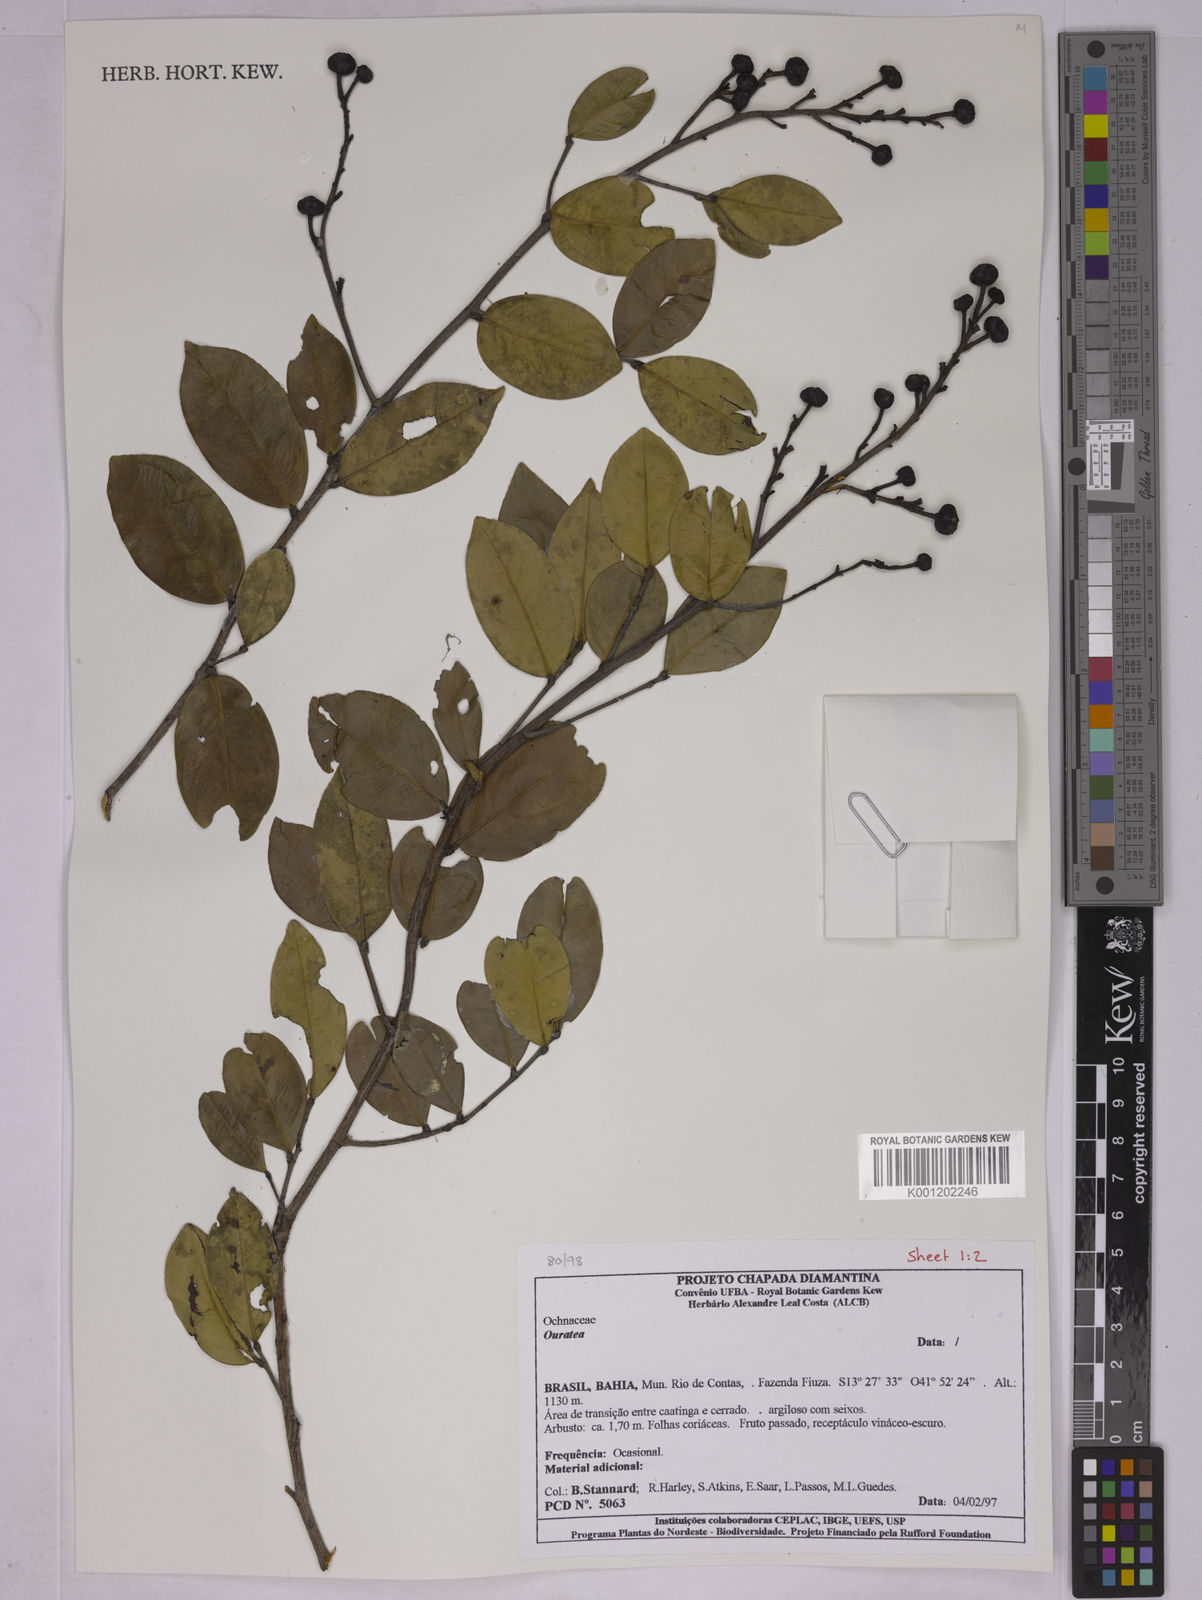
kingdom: Plantae
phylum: Tracheophyta
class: Magnoliopsida
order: Malpighiales
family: Ochnaceae
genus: Ouratea
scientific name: Ouratea
